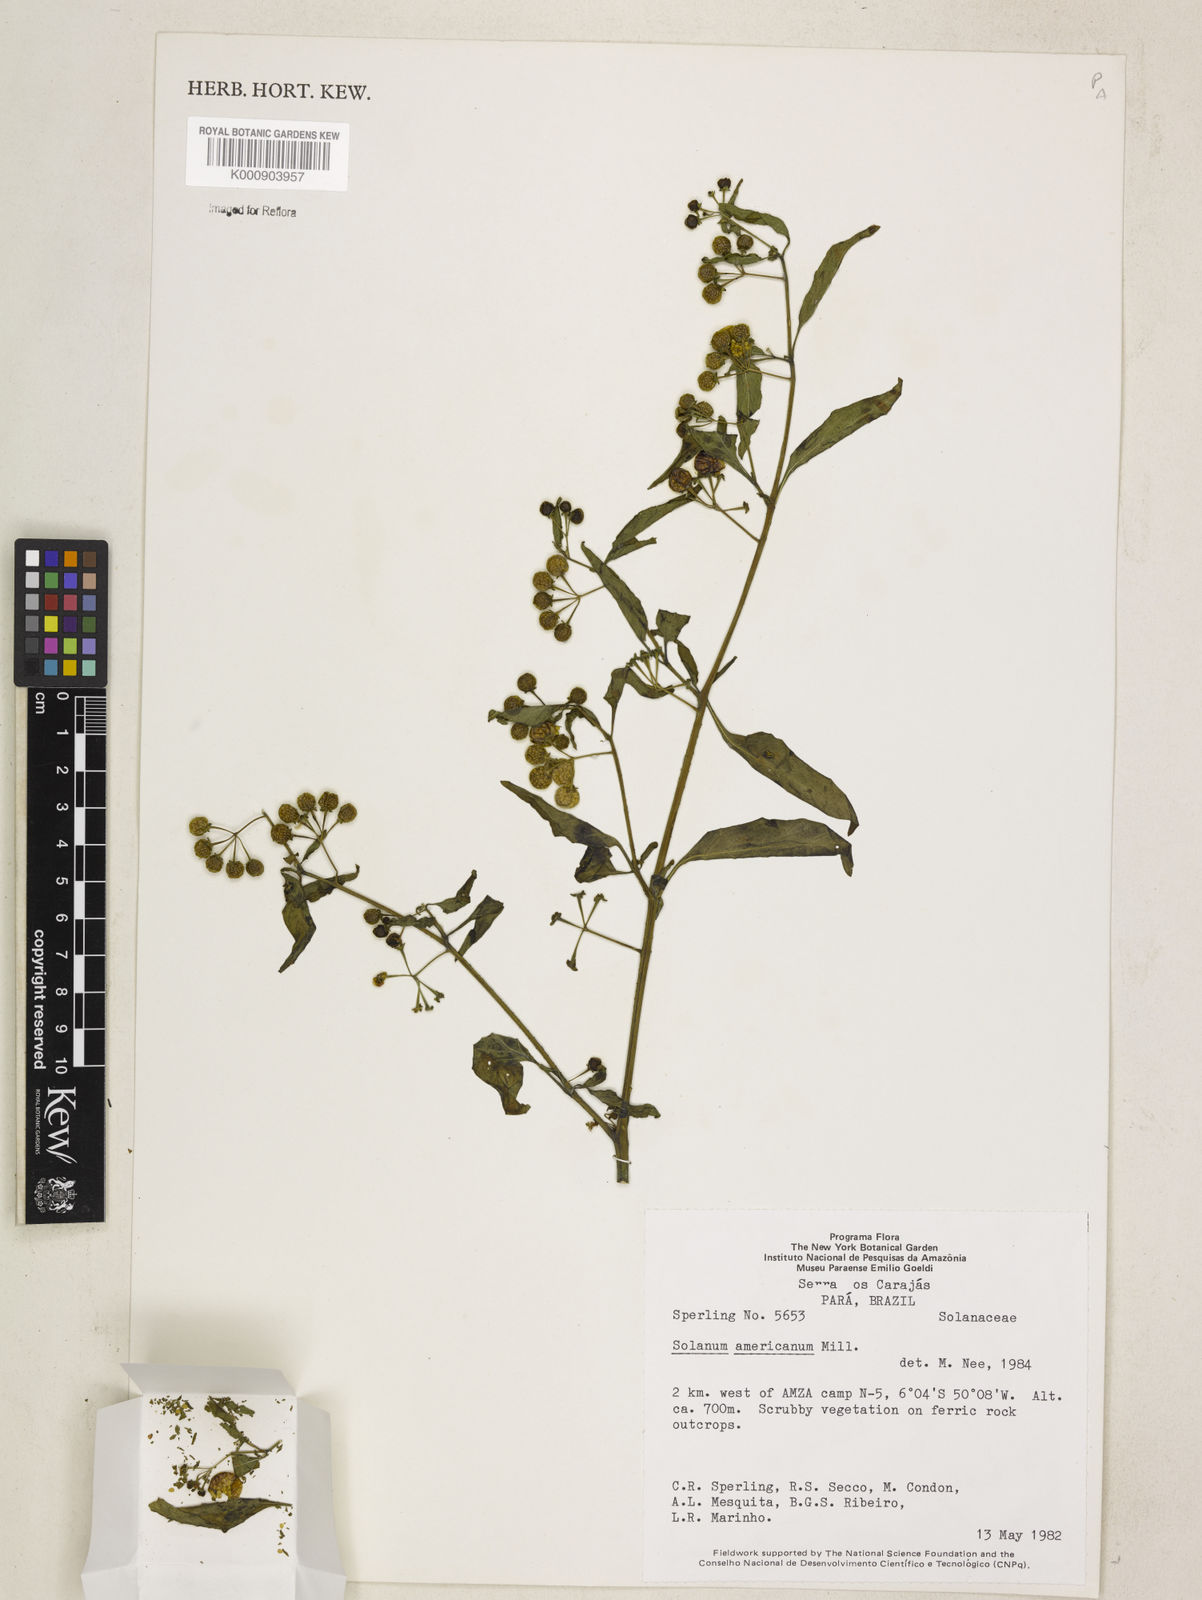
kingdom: Plantae
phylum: Tracheophyta
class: Magnoliopsida
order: Solanales
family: Solanaceae
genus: Solanum
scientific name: Solanum americanum
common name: American black nightshade
